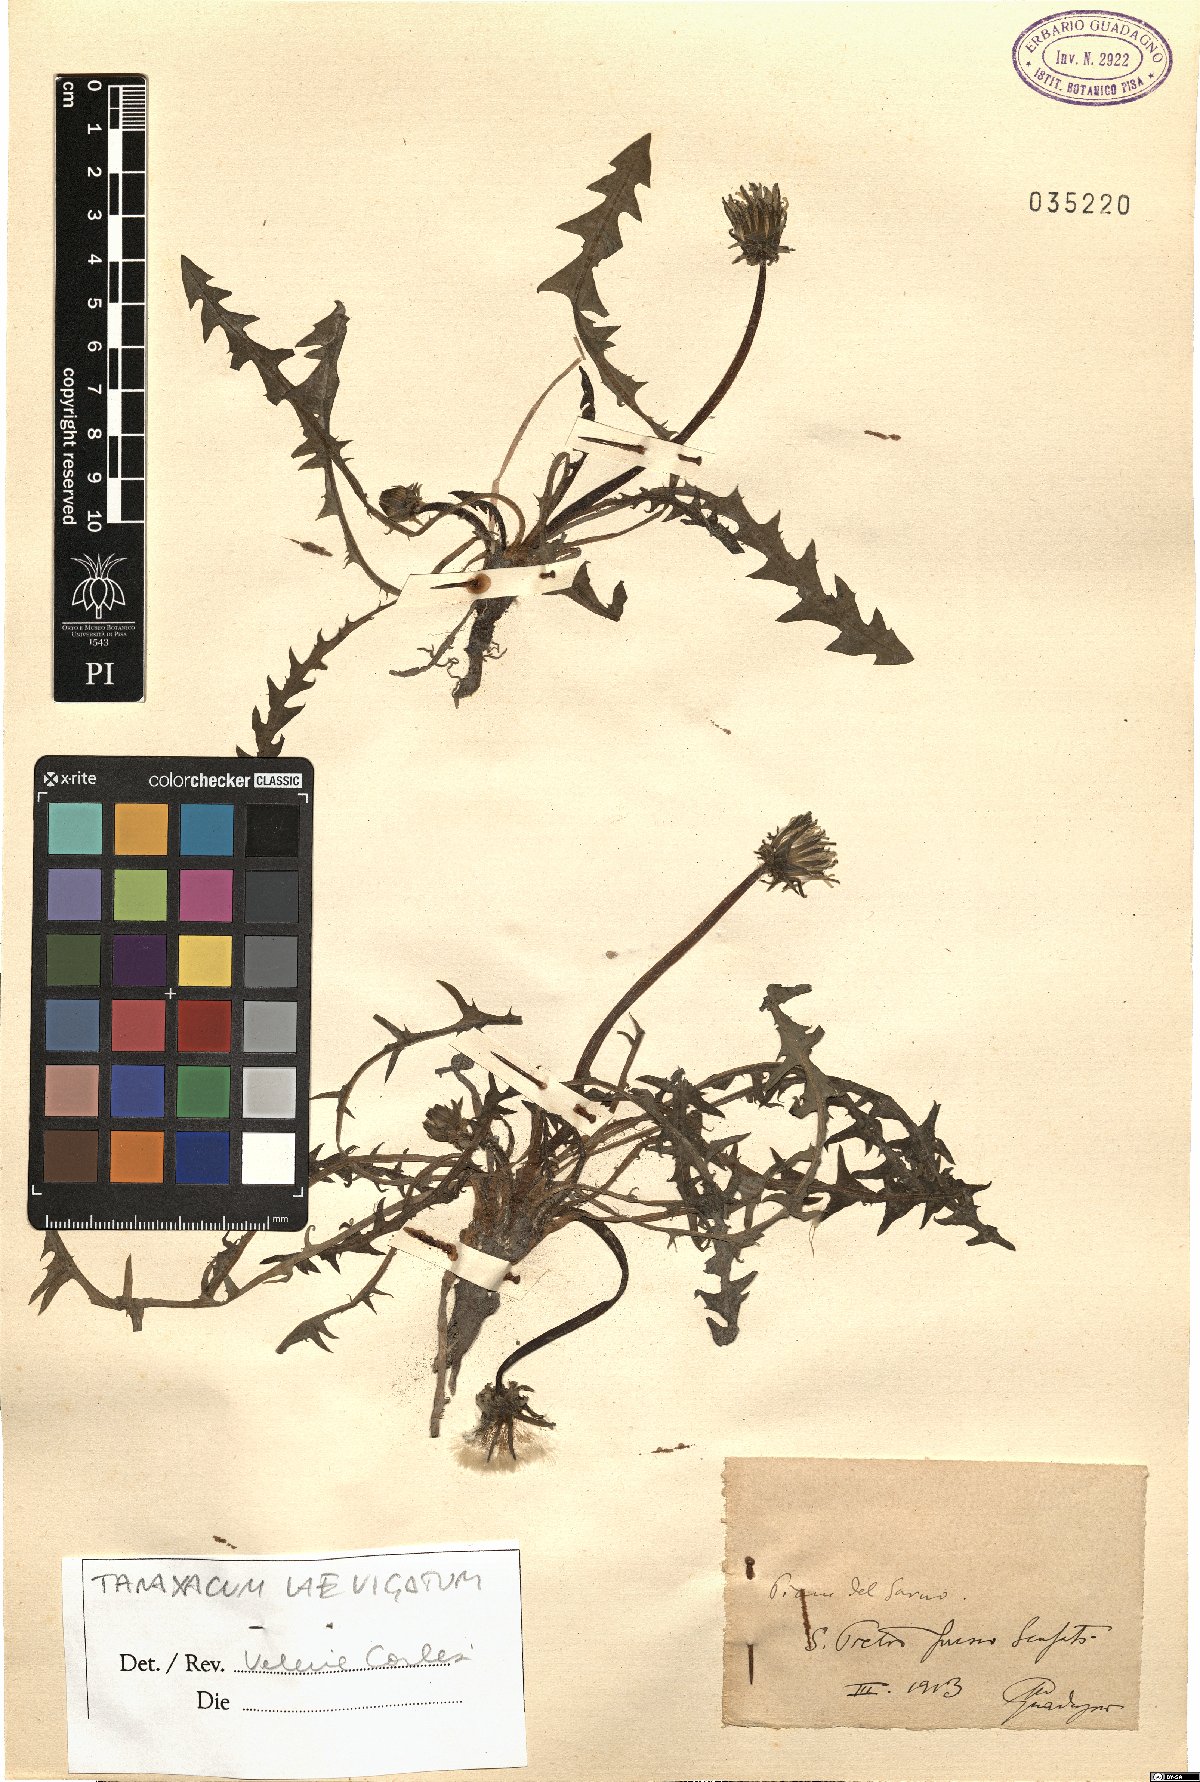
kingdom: Plantae
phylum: Tracheophyta
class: Magnoliopsida
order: Asterales
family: Asteraceae
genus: Taraxacum
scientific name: Taraxacum erythrospermum
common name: Rock dandelion
